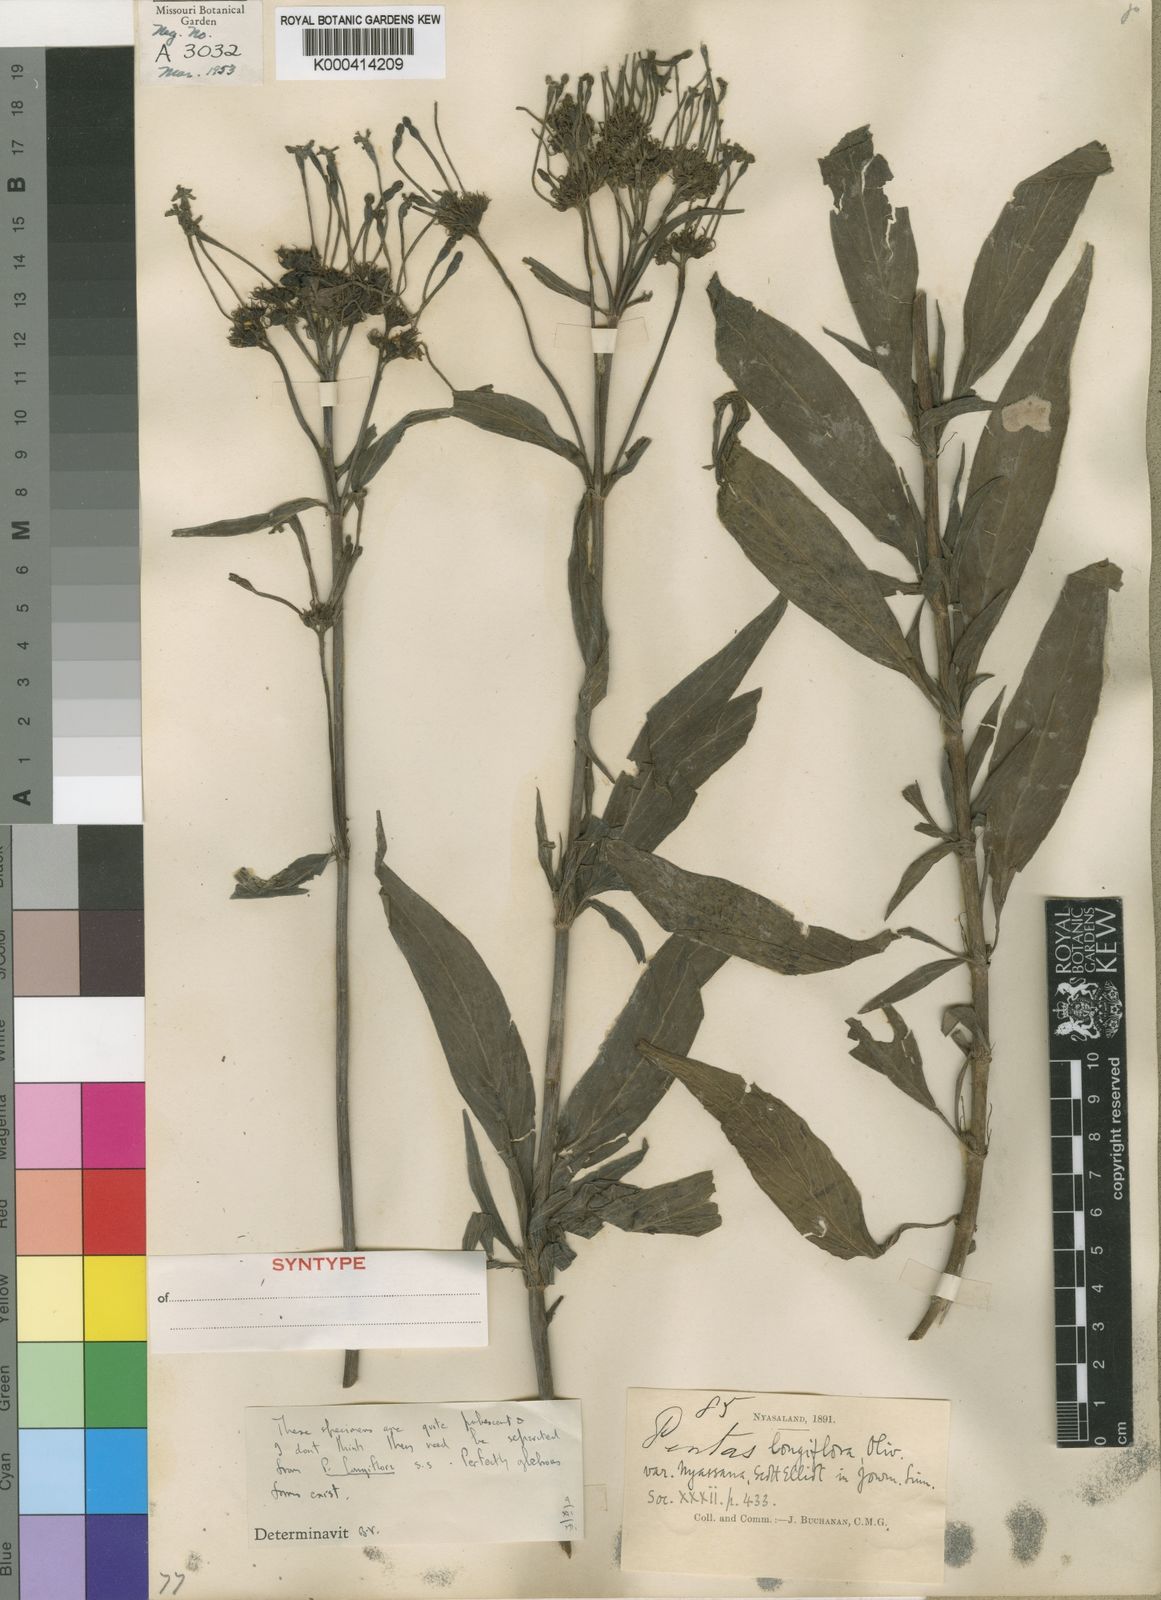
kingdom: Plantae
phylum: Tracheophyta
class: Magnoliopsida
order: Gentianales
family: Rubiaceae
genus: Dolichopentas
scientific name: Dolichopentas
